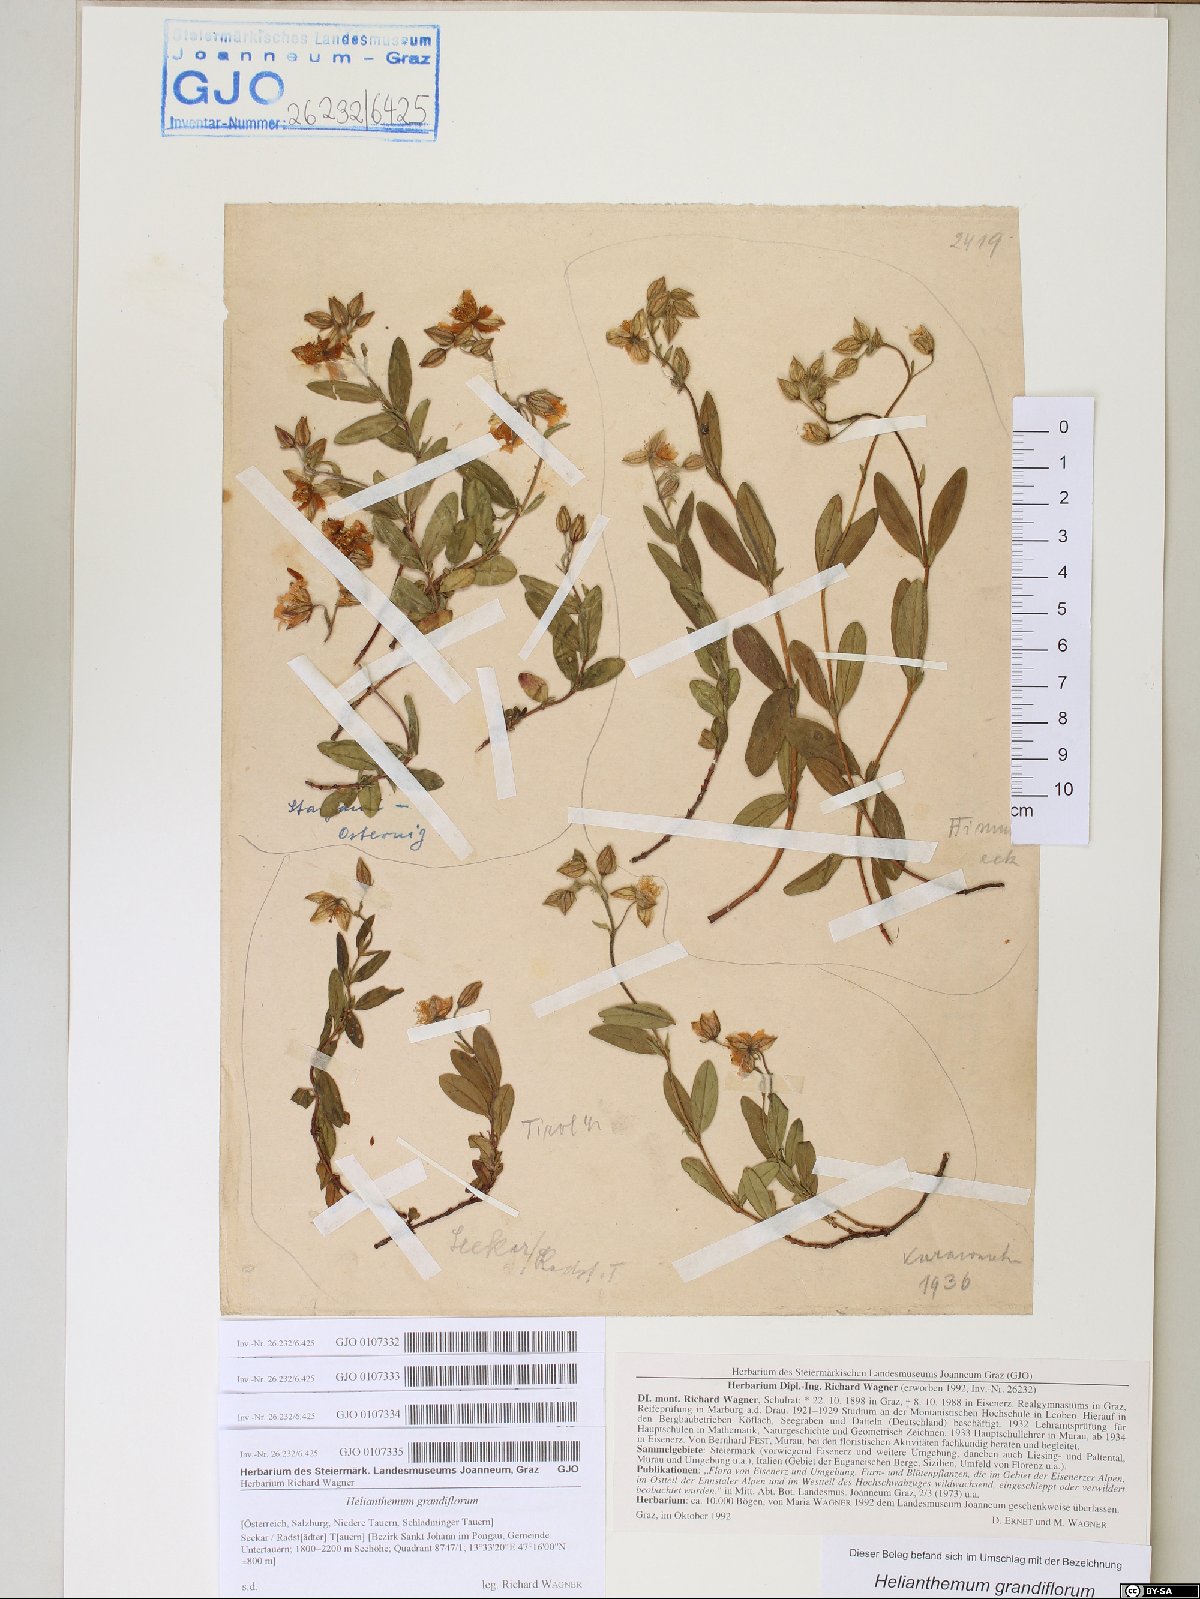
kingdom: Plantae
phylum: Tracheophyta
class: Magnoliopsida
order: Malvales
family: Cistaceae
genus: Helianthemum
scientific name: Helianthemum nummularium
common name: Common rock-rose
